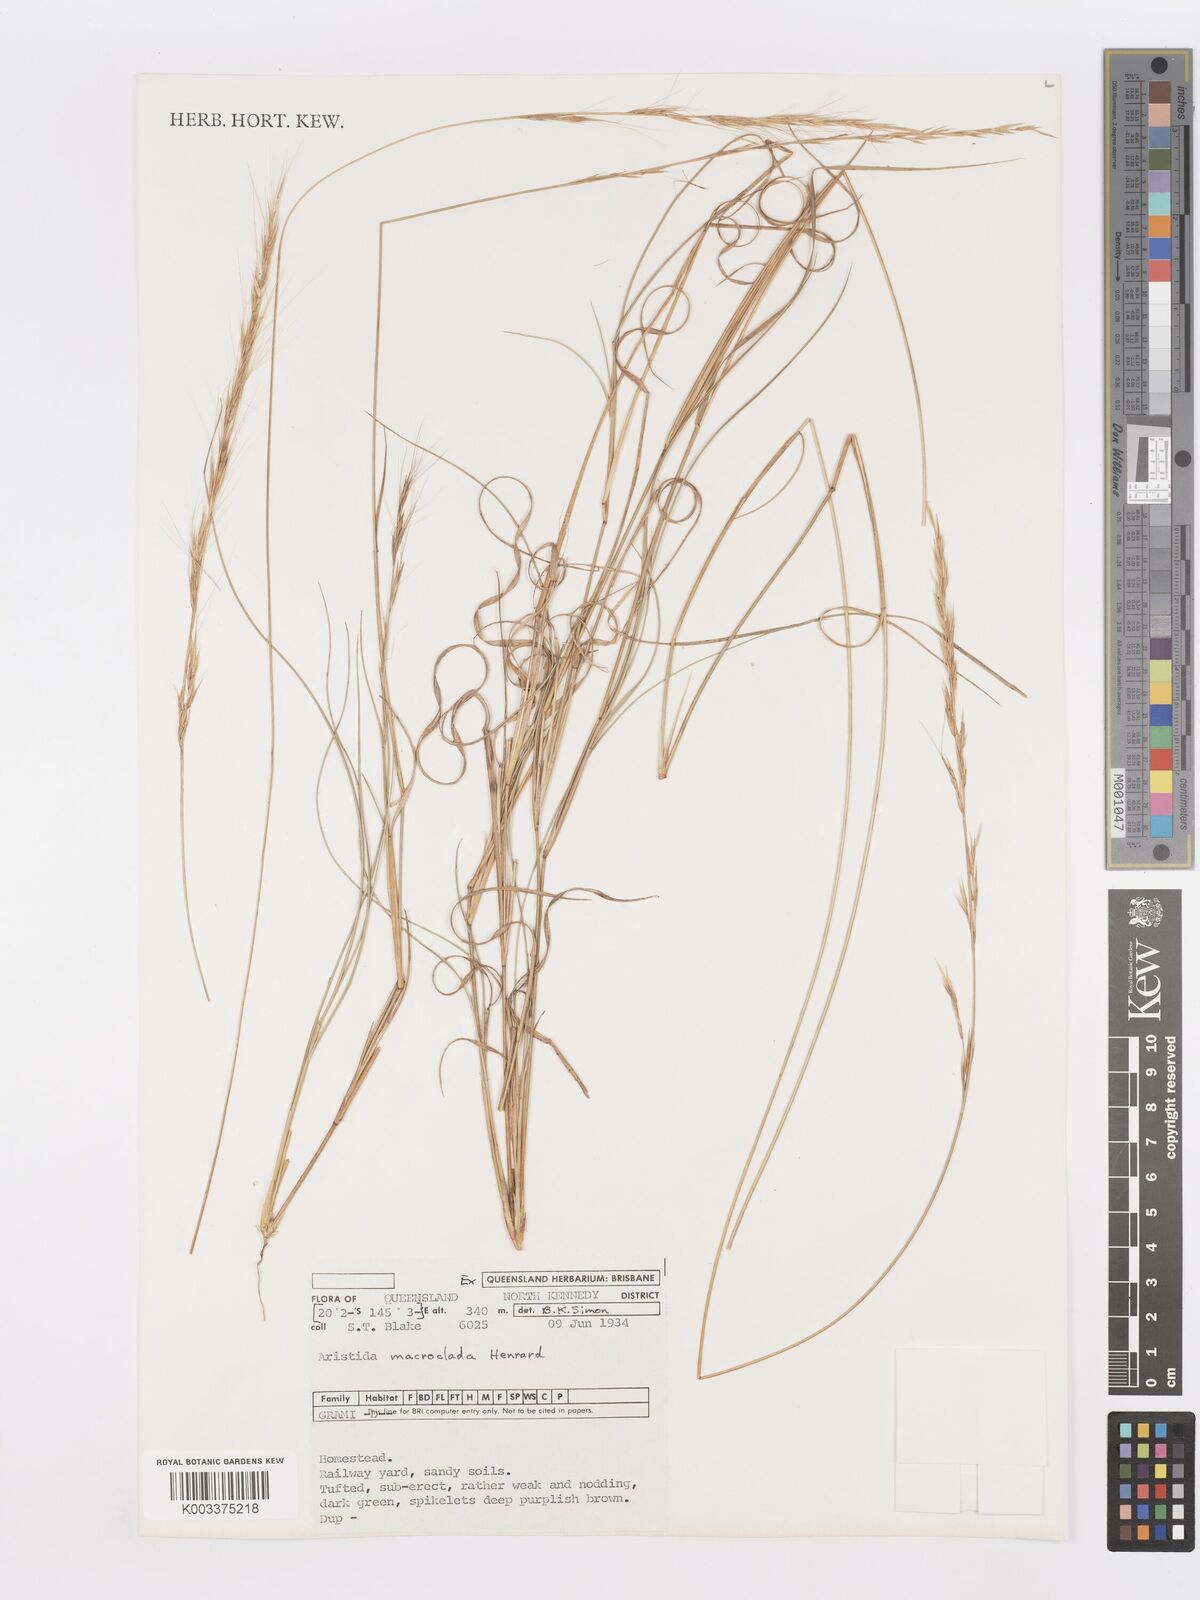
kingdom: Plantae
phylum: Tracheophyta
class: Liliopsida
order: Poales
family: Poaceae
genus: Aristida
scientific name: Aristida macroclada
